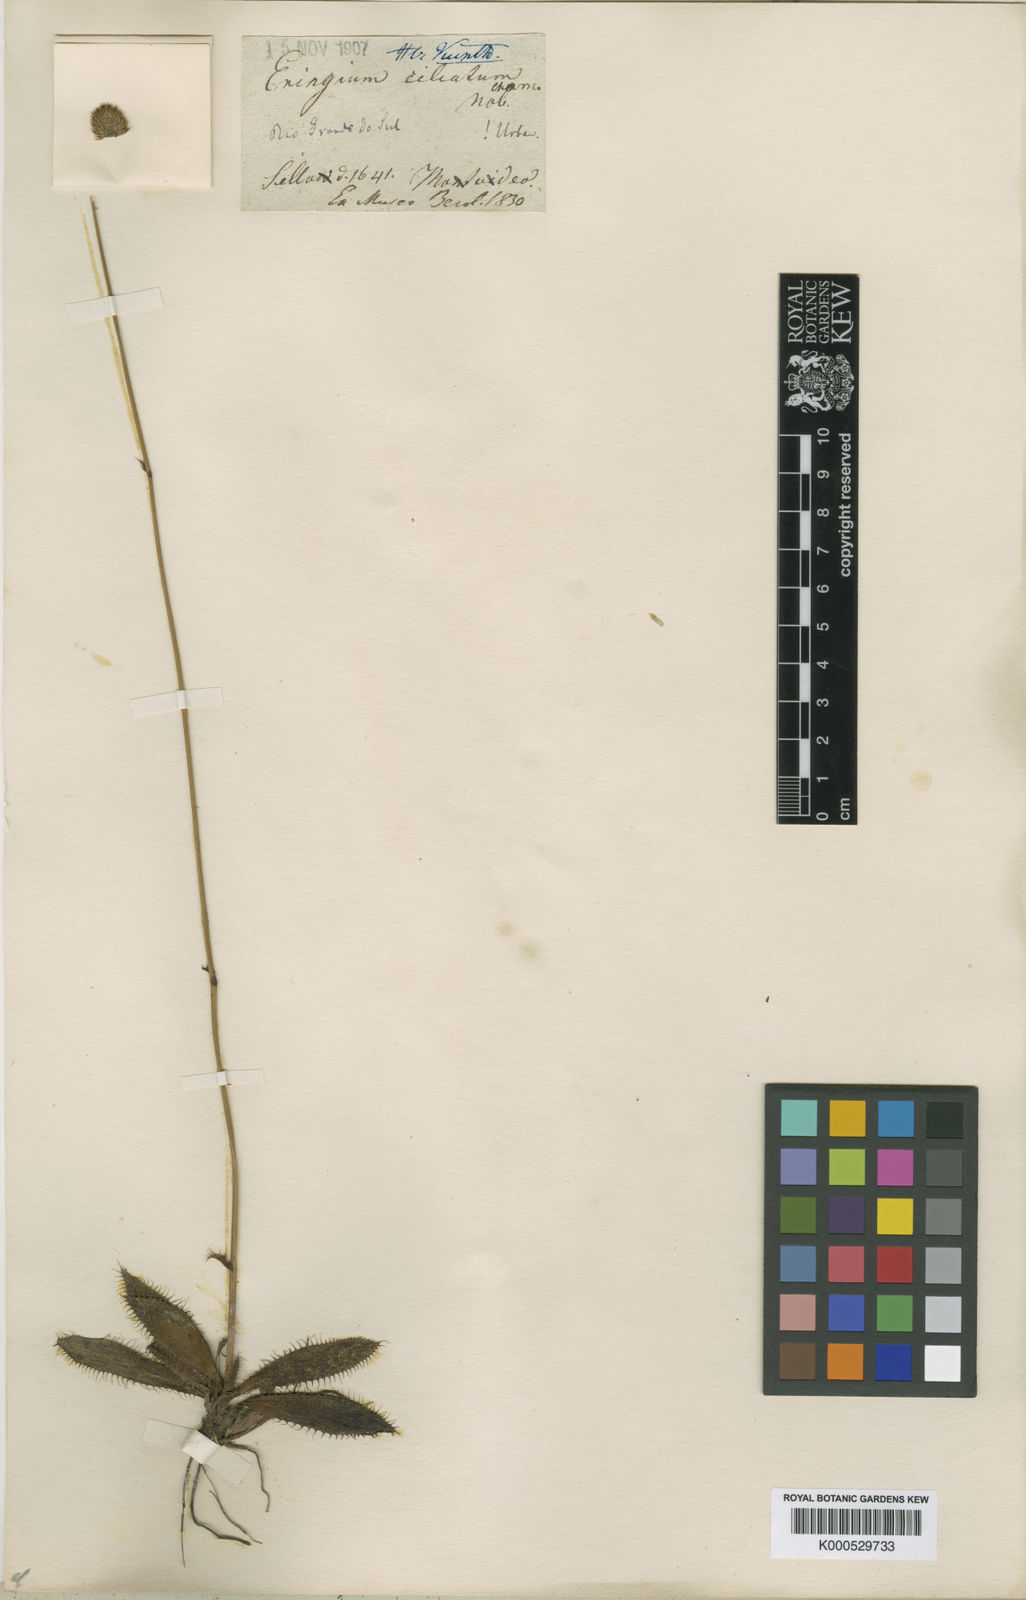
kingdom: Plantae
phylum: Tracheophyta
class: Magnoliopsida
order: Apiales
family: Apiaceae
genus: Eryngium
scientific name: Eryngium ciliatum
